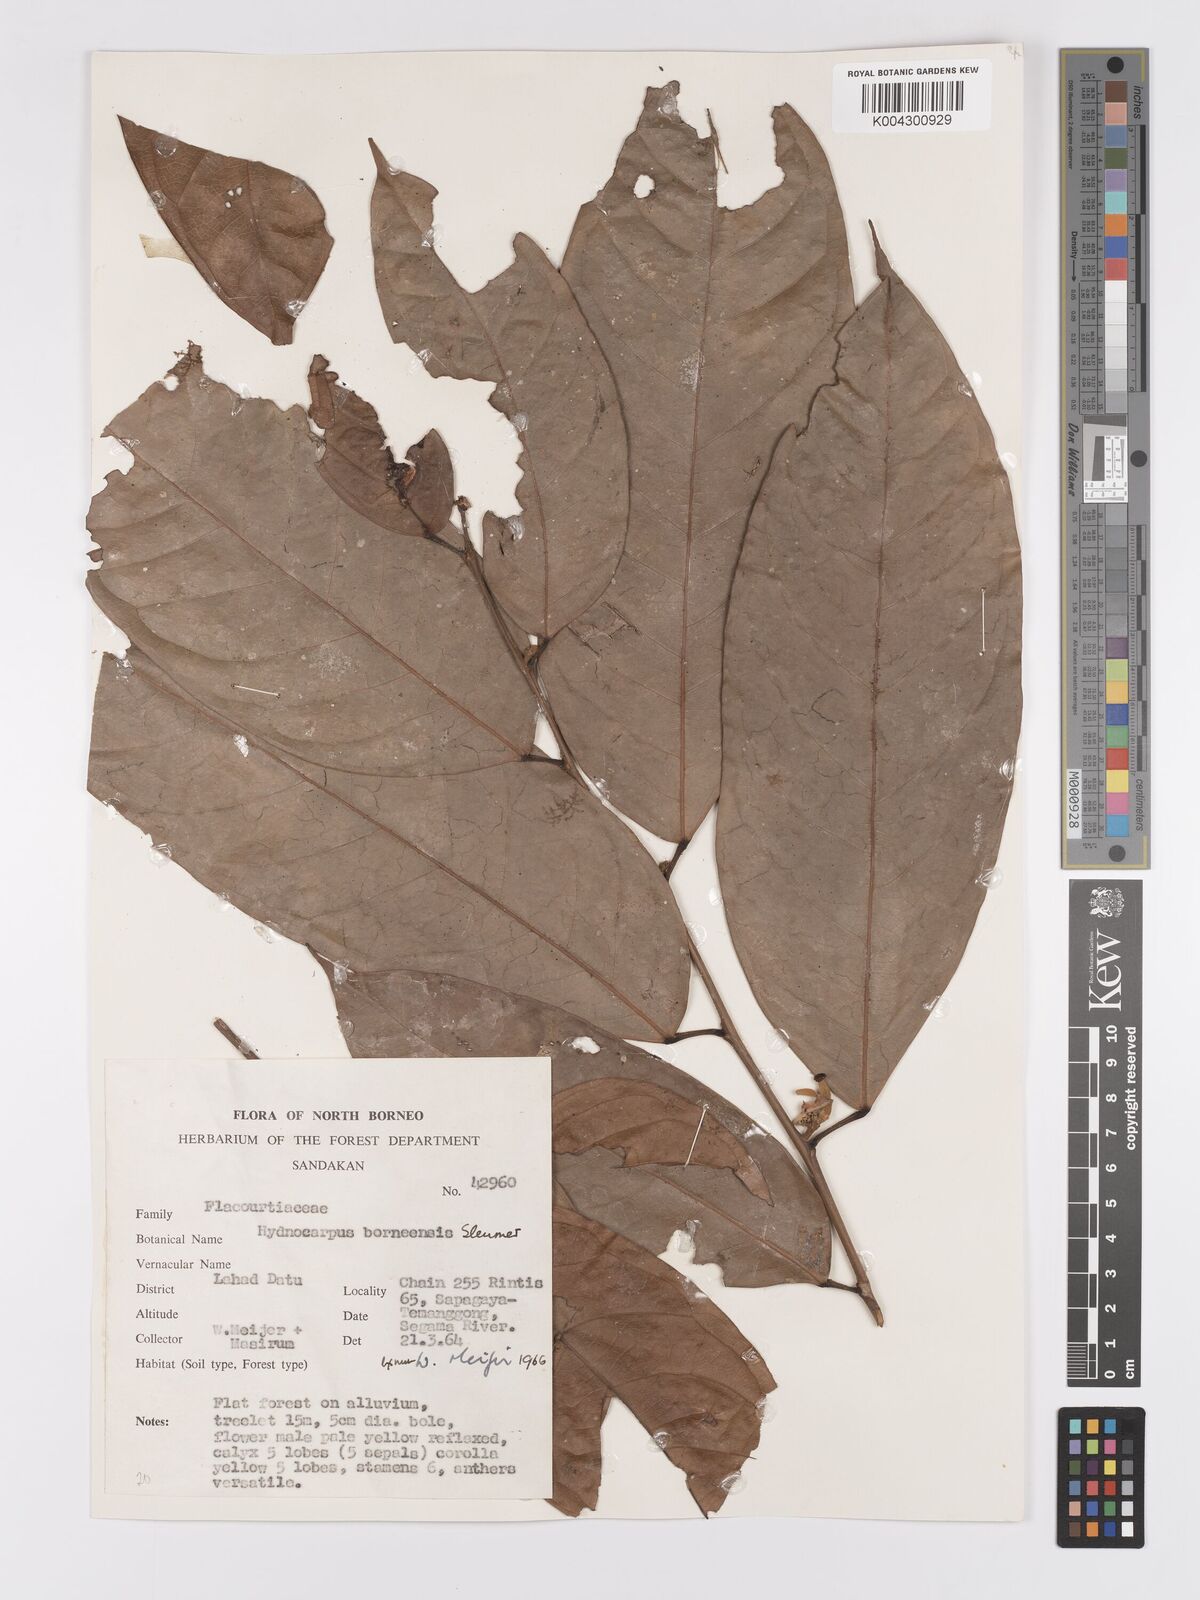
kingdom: Plantae
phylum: Tracheophyta
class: Magnoliopsida
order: Malpighiales
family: Achariaceae
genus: Hydnocarpus
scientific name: Hydnocarpus borneensis
